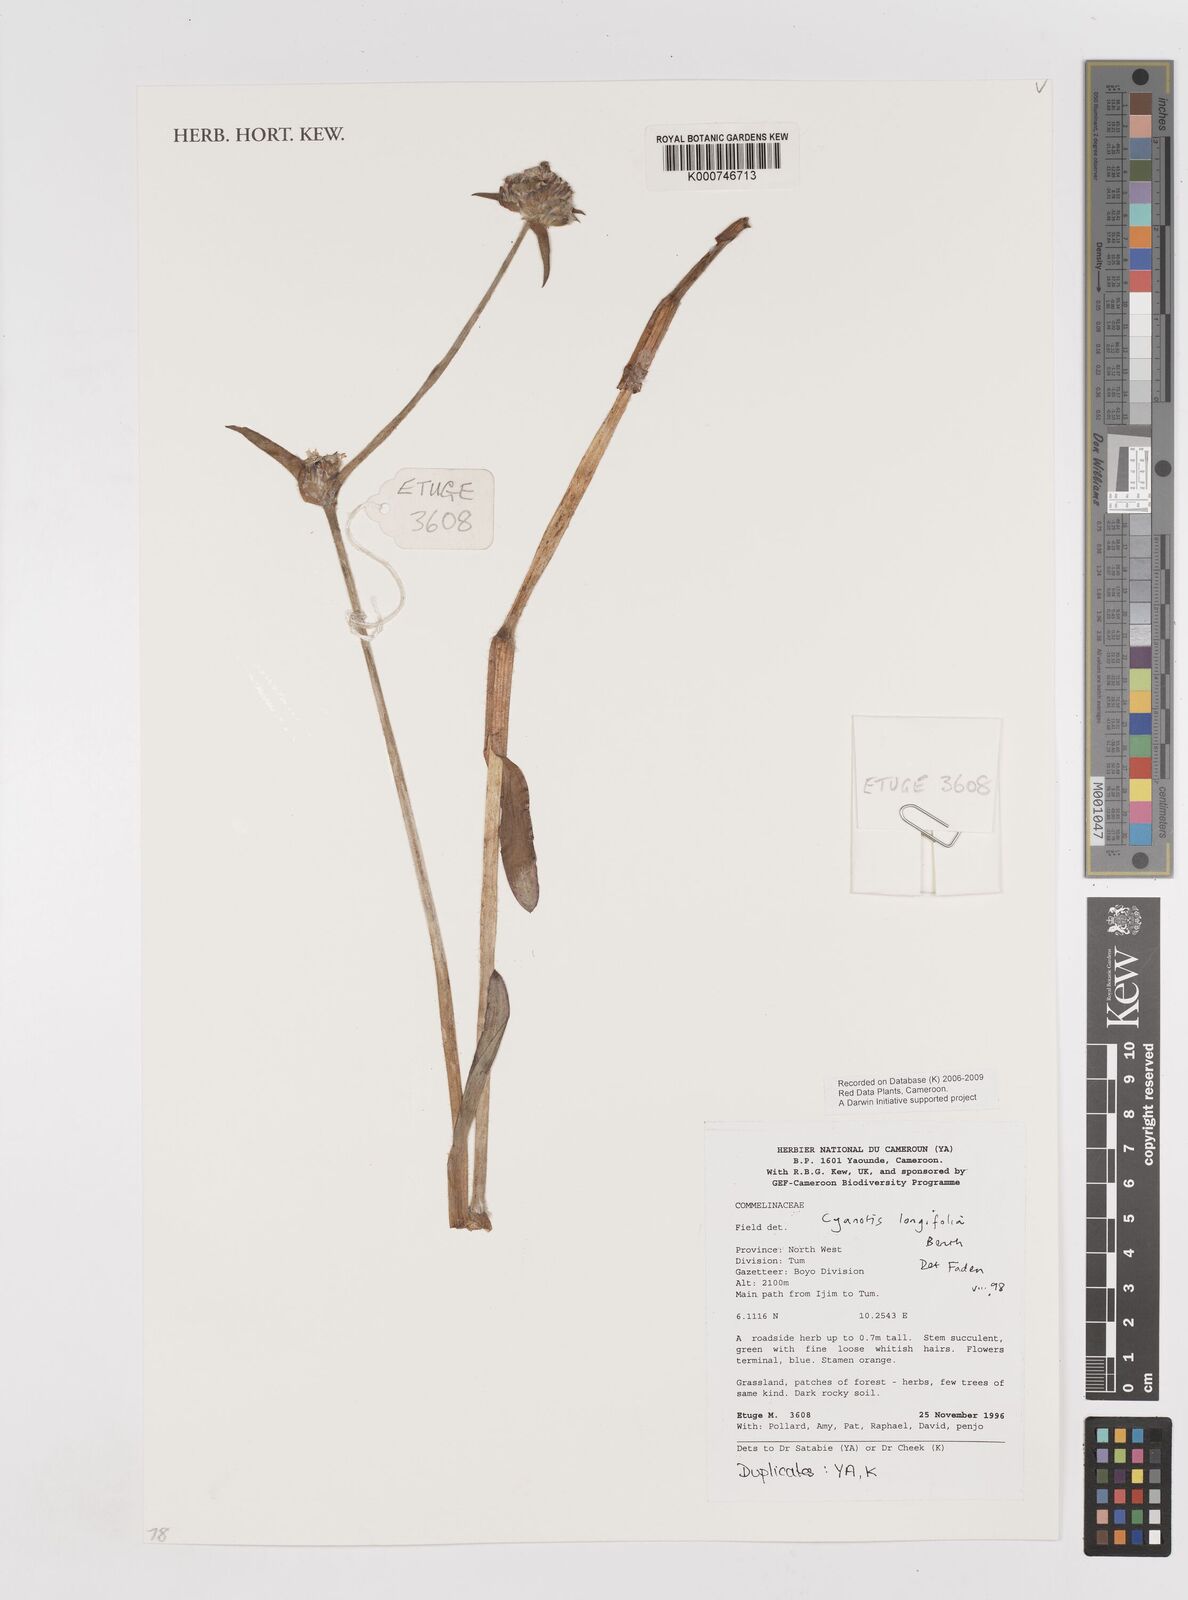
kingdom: Plantae
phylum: Tracheophyta
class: Liliopsida
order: Commelinales
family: Commelinaceae
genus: Cyanotis
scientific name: Cyanotis longifolia
